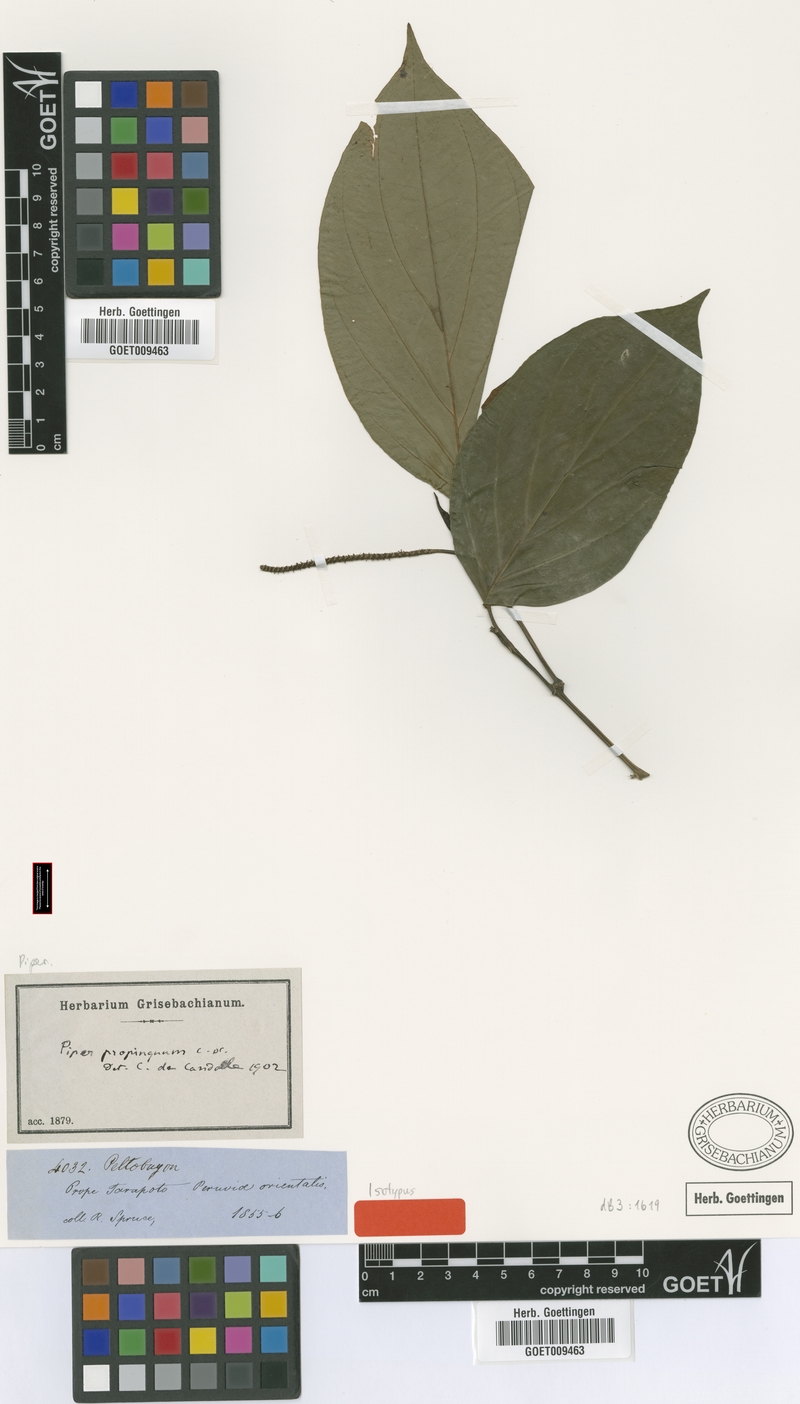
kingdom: Plantae
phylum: Tracheophyta
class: Magnoliopsida
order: Piperales
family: Piperaceae
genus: Piper
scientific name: Piper crassinervium
